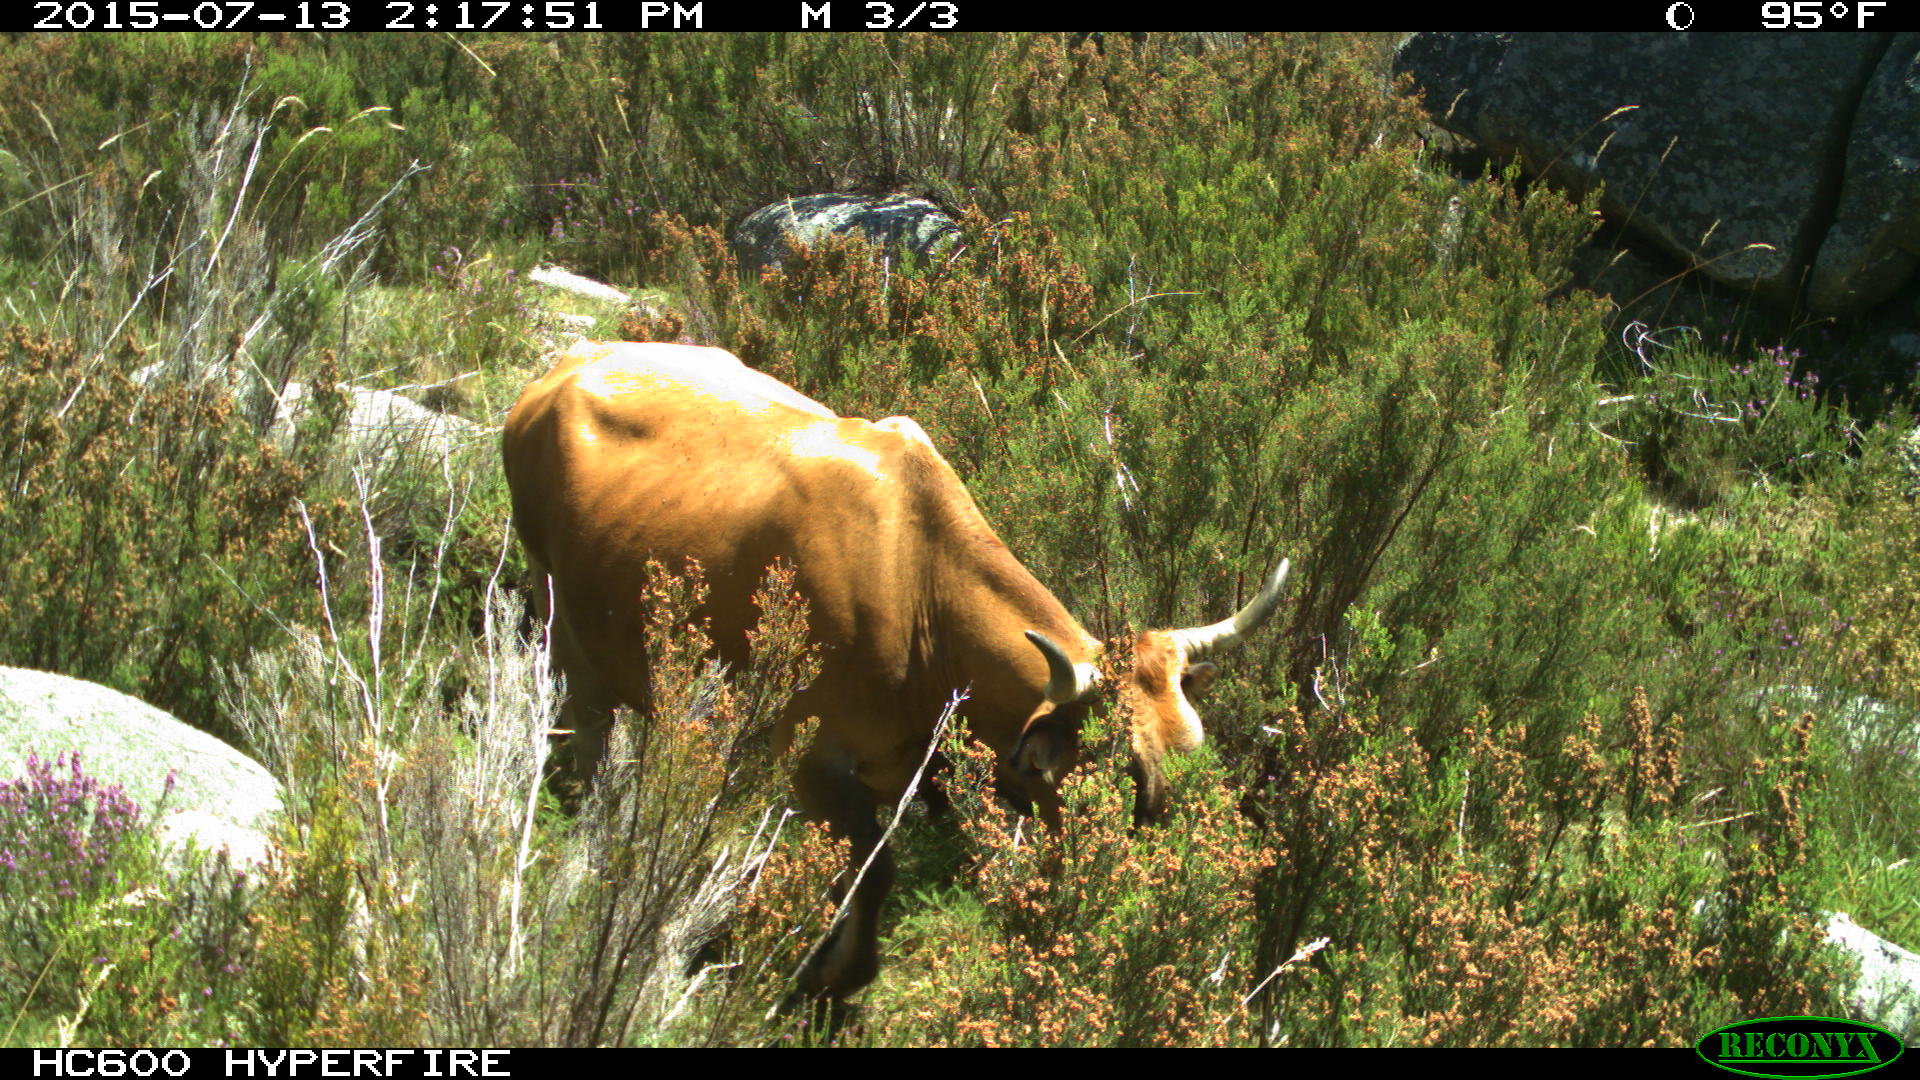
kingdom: Animalia
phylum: Chordata
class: Mammalia
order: Artiodactyla
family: Bovidae
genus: Bos
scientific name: Bos taurus
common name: Domesticated cattle
